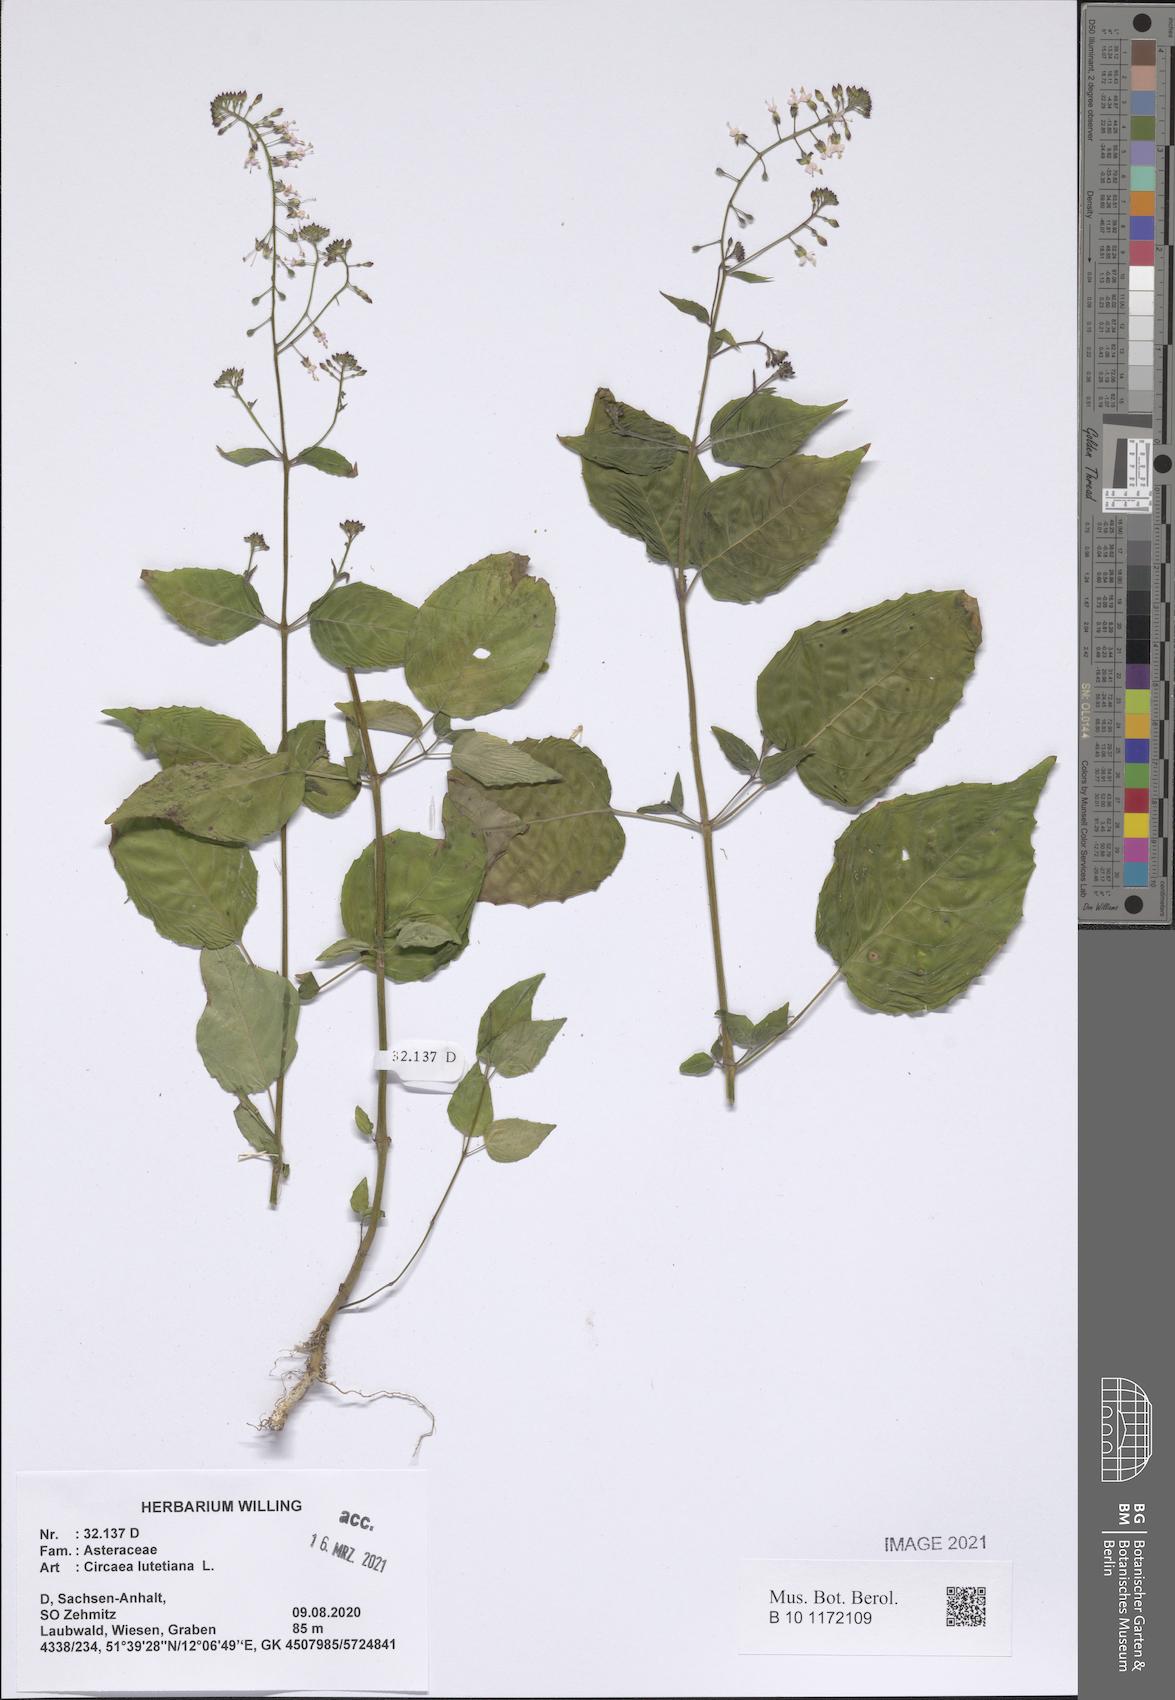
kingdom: Plantae
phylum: Tracheophyta
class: Magnoliopsida
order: Myrtales
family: Onagraceae
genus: Circaea
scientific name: Circaea lutetiana
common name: Enchanter's-nightshade
